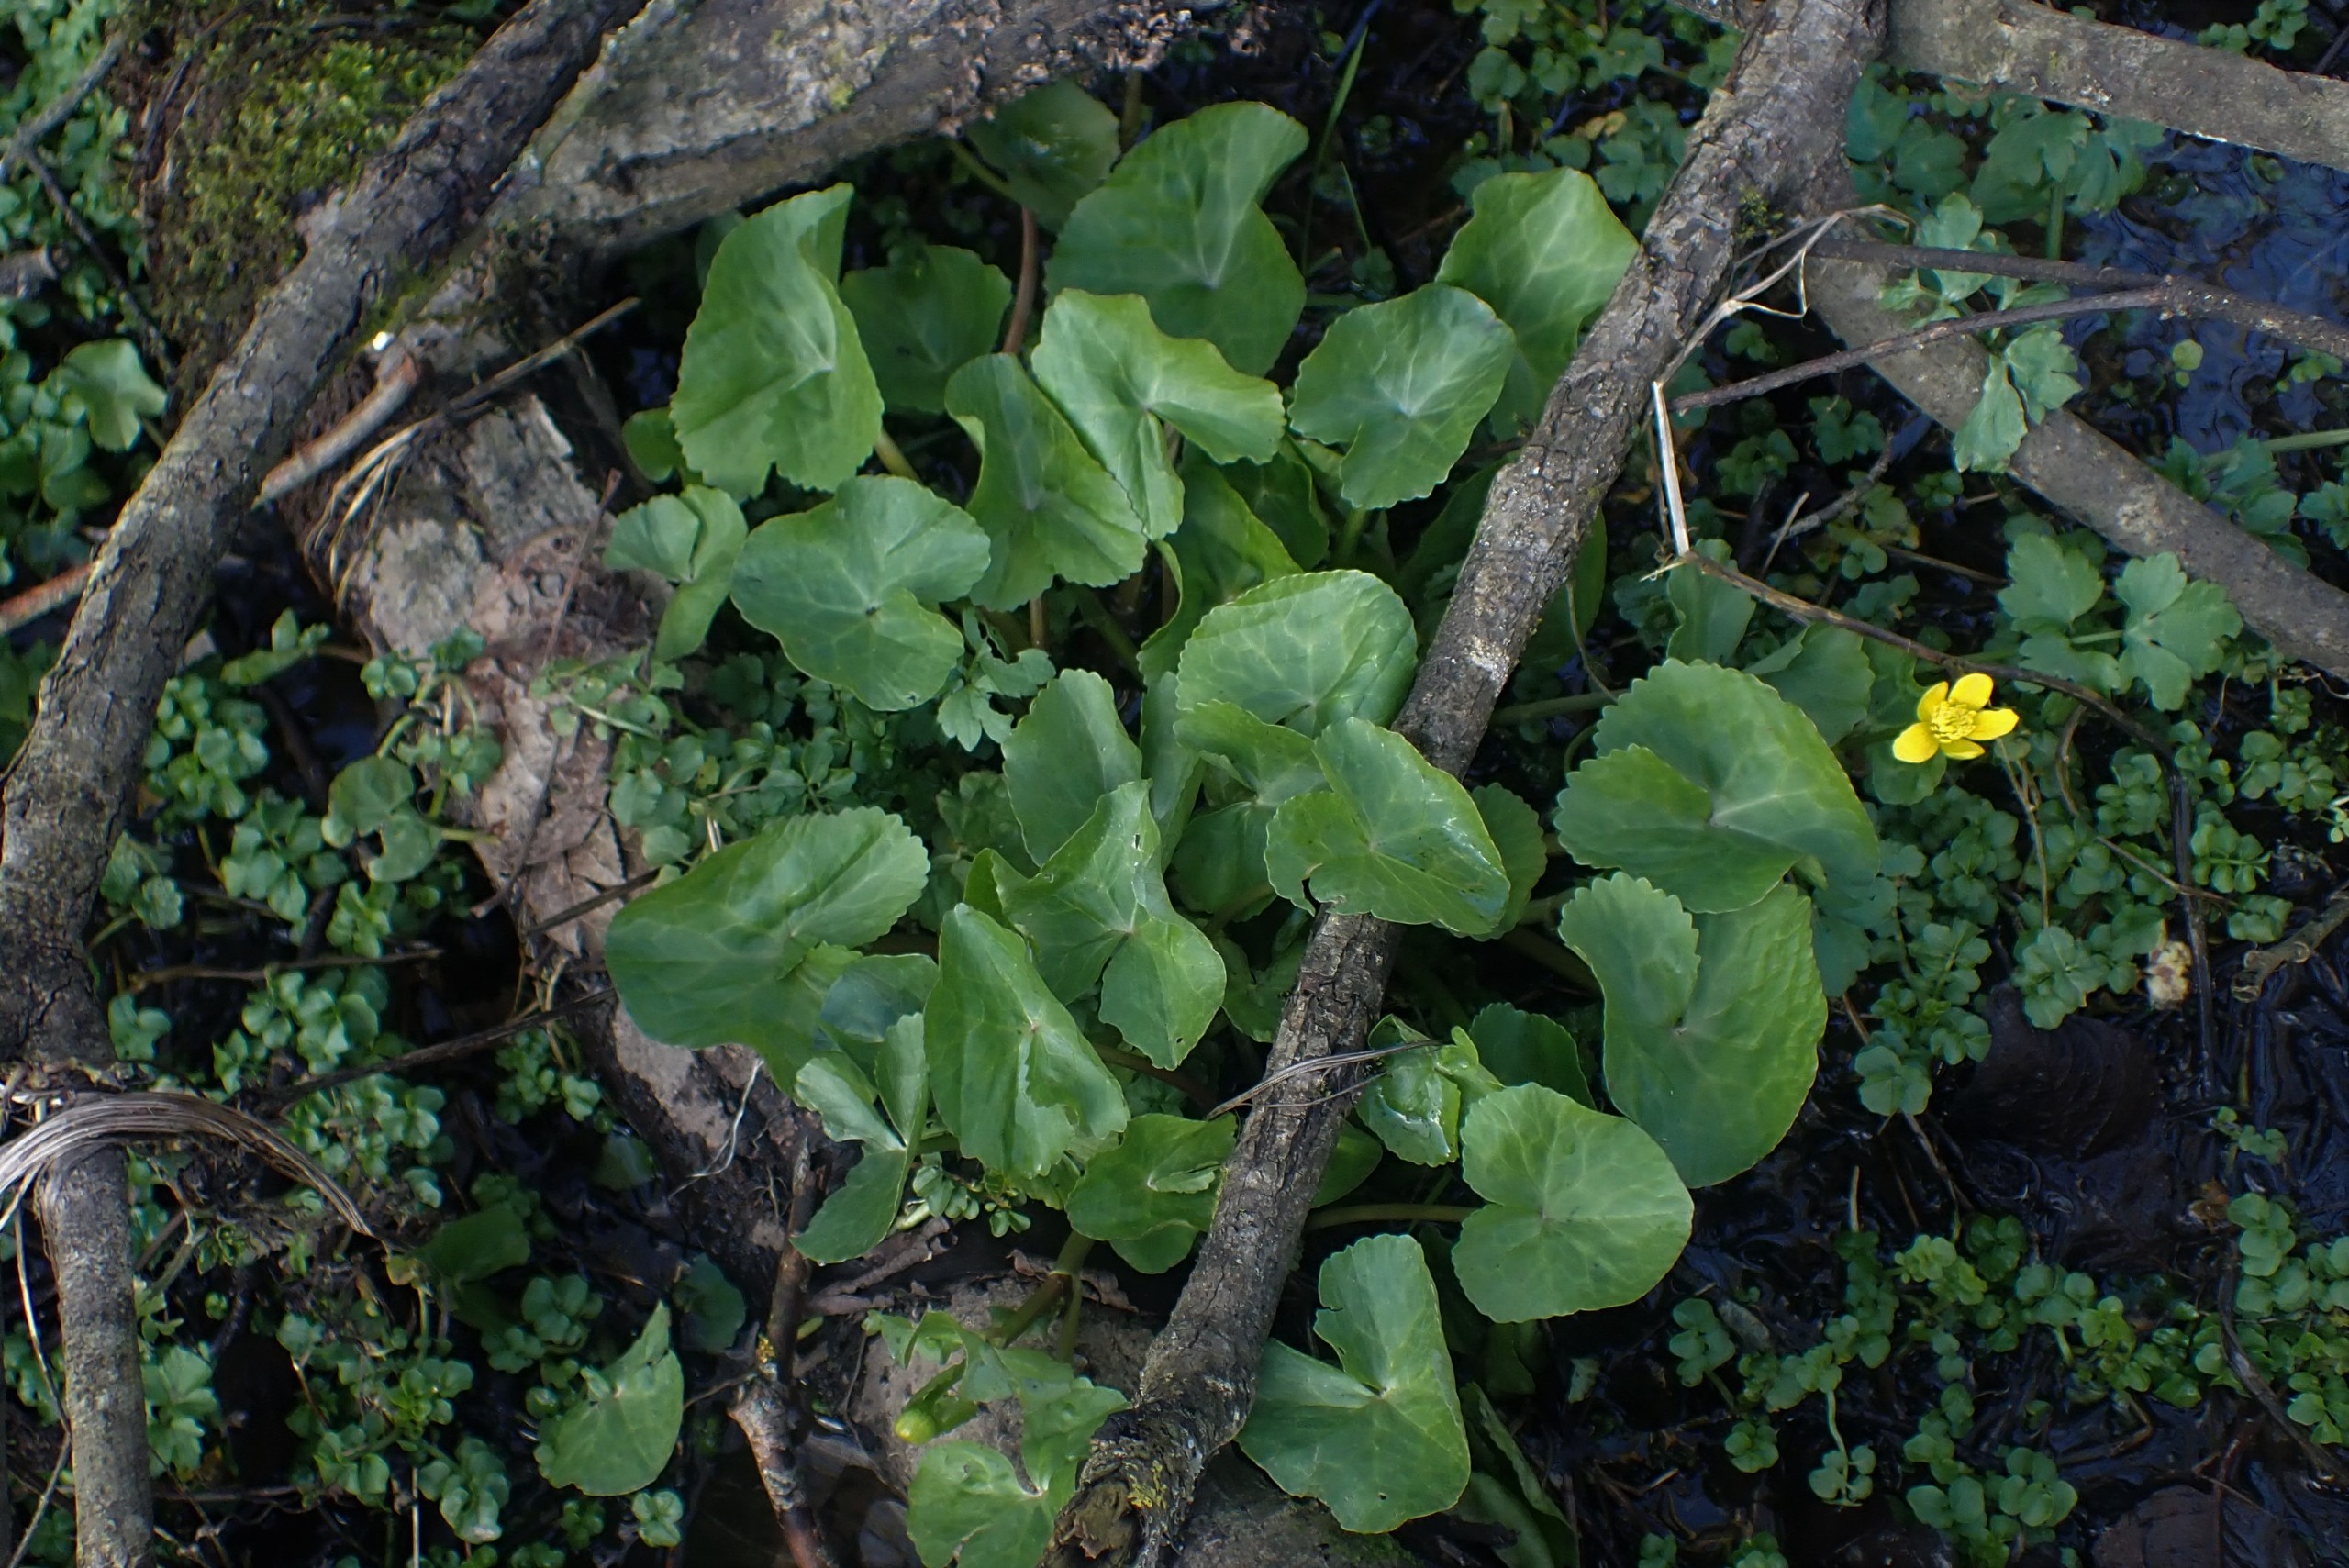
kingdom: Plantae
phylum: Tracheophyta
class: Magnoliopsida
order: Ranunculales
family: Ranunculaceae
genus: Caltha
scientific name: Caltha palustris
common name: Eng-kabbeleje
